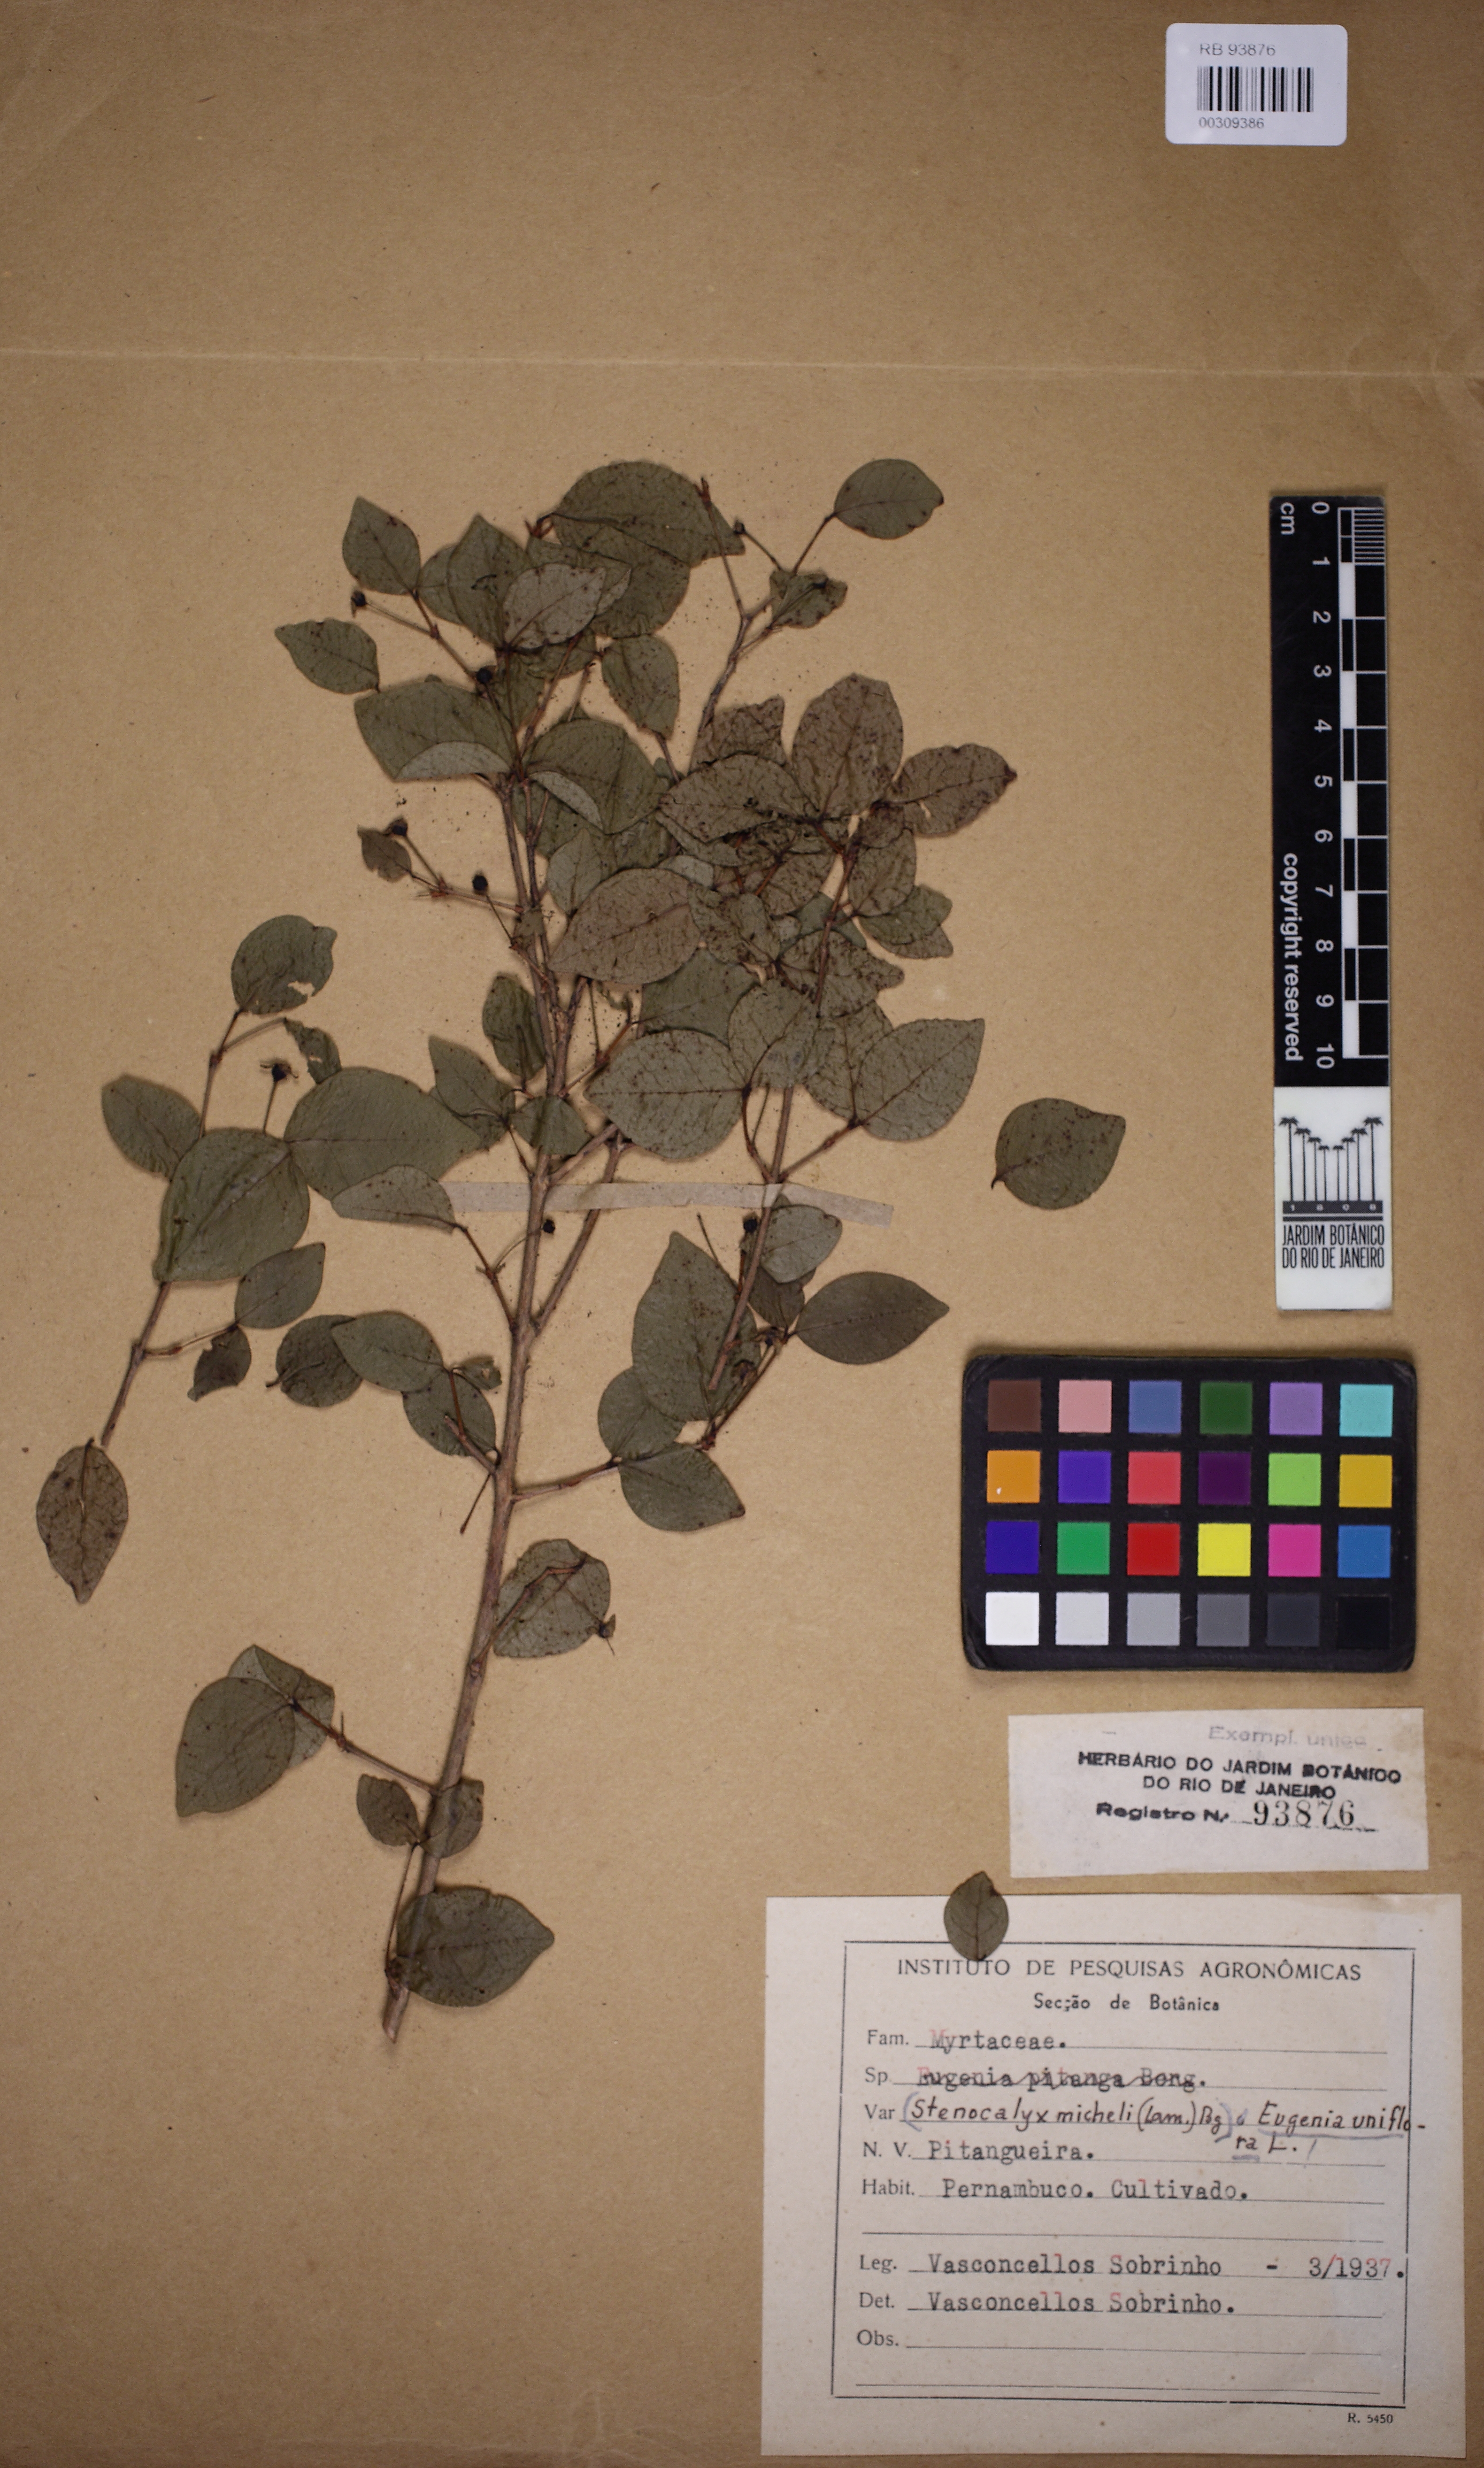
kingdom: Plantae
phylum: Tracheophyta
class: Magnoliopsida
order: Myrtales
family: Myrtaceae
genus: Eugenia
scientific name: Eugenia uniflora
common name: Surinam cherry
